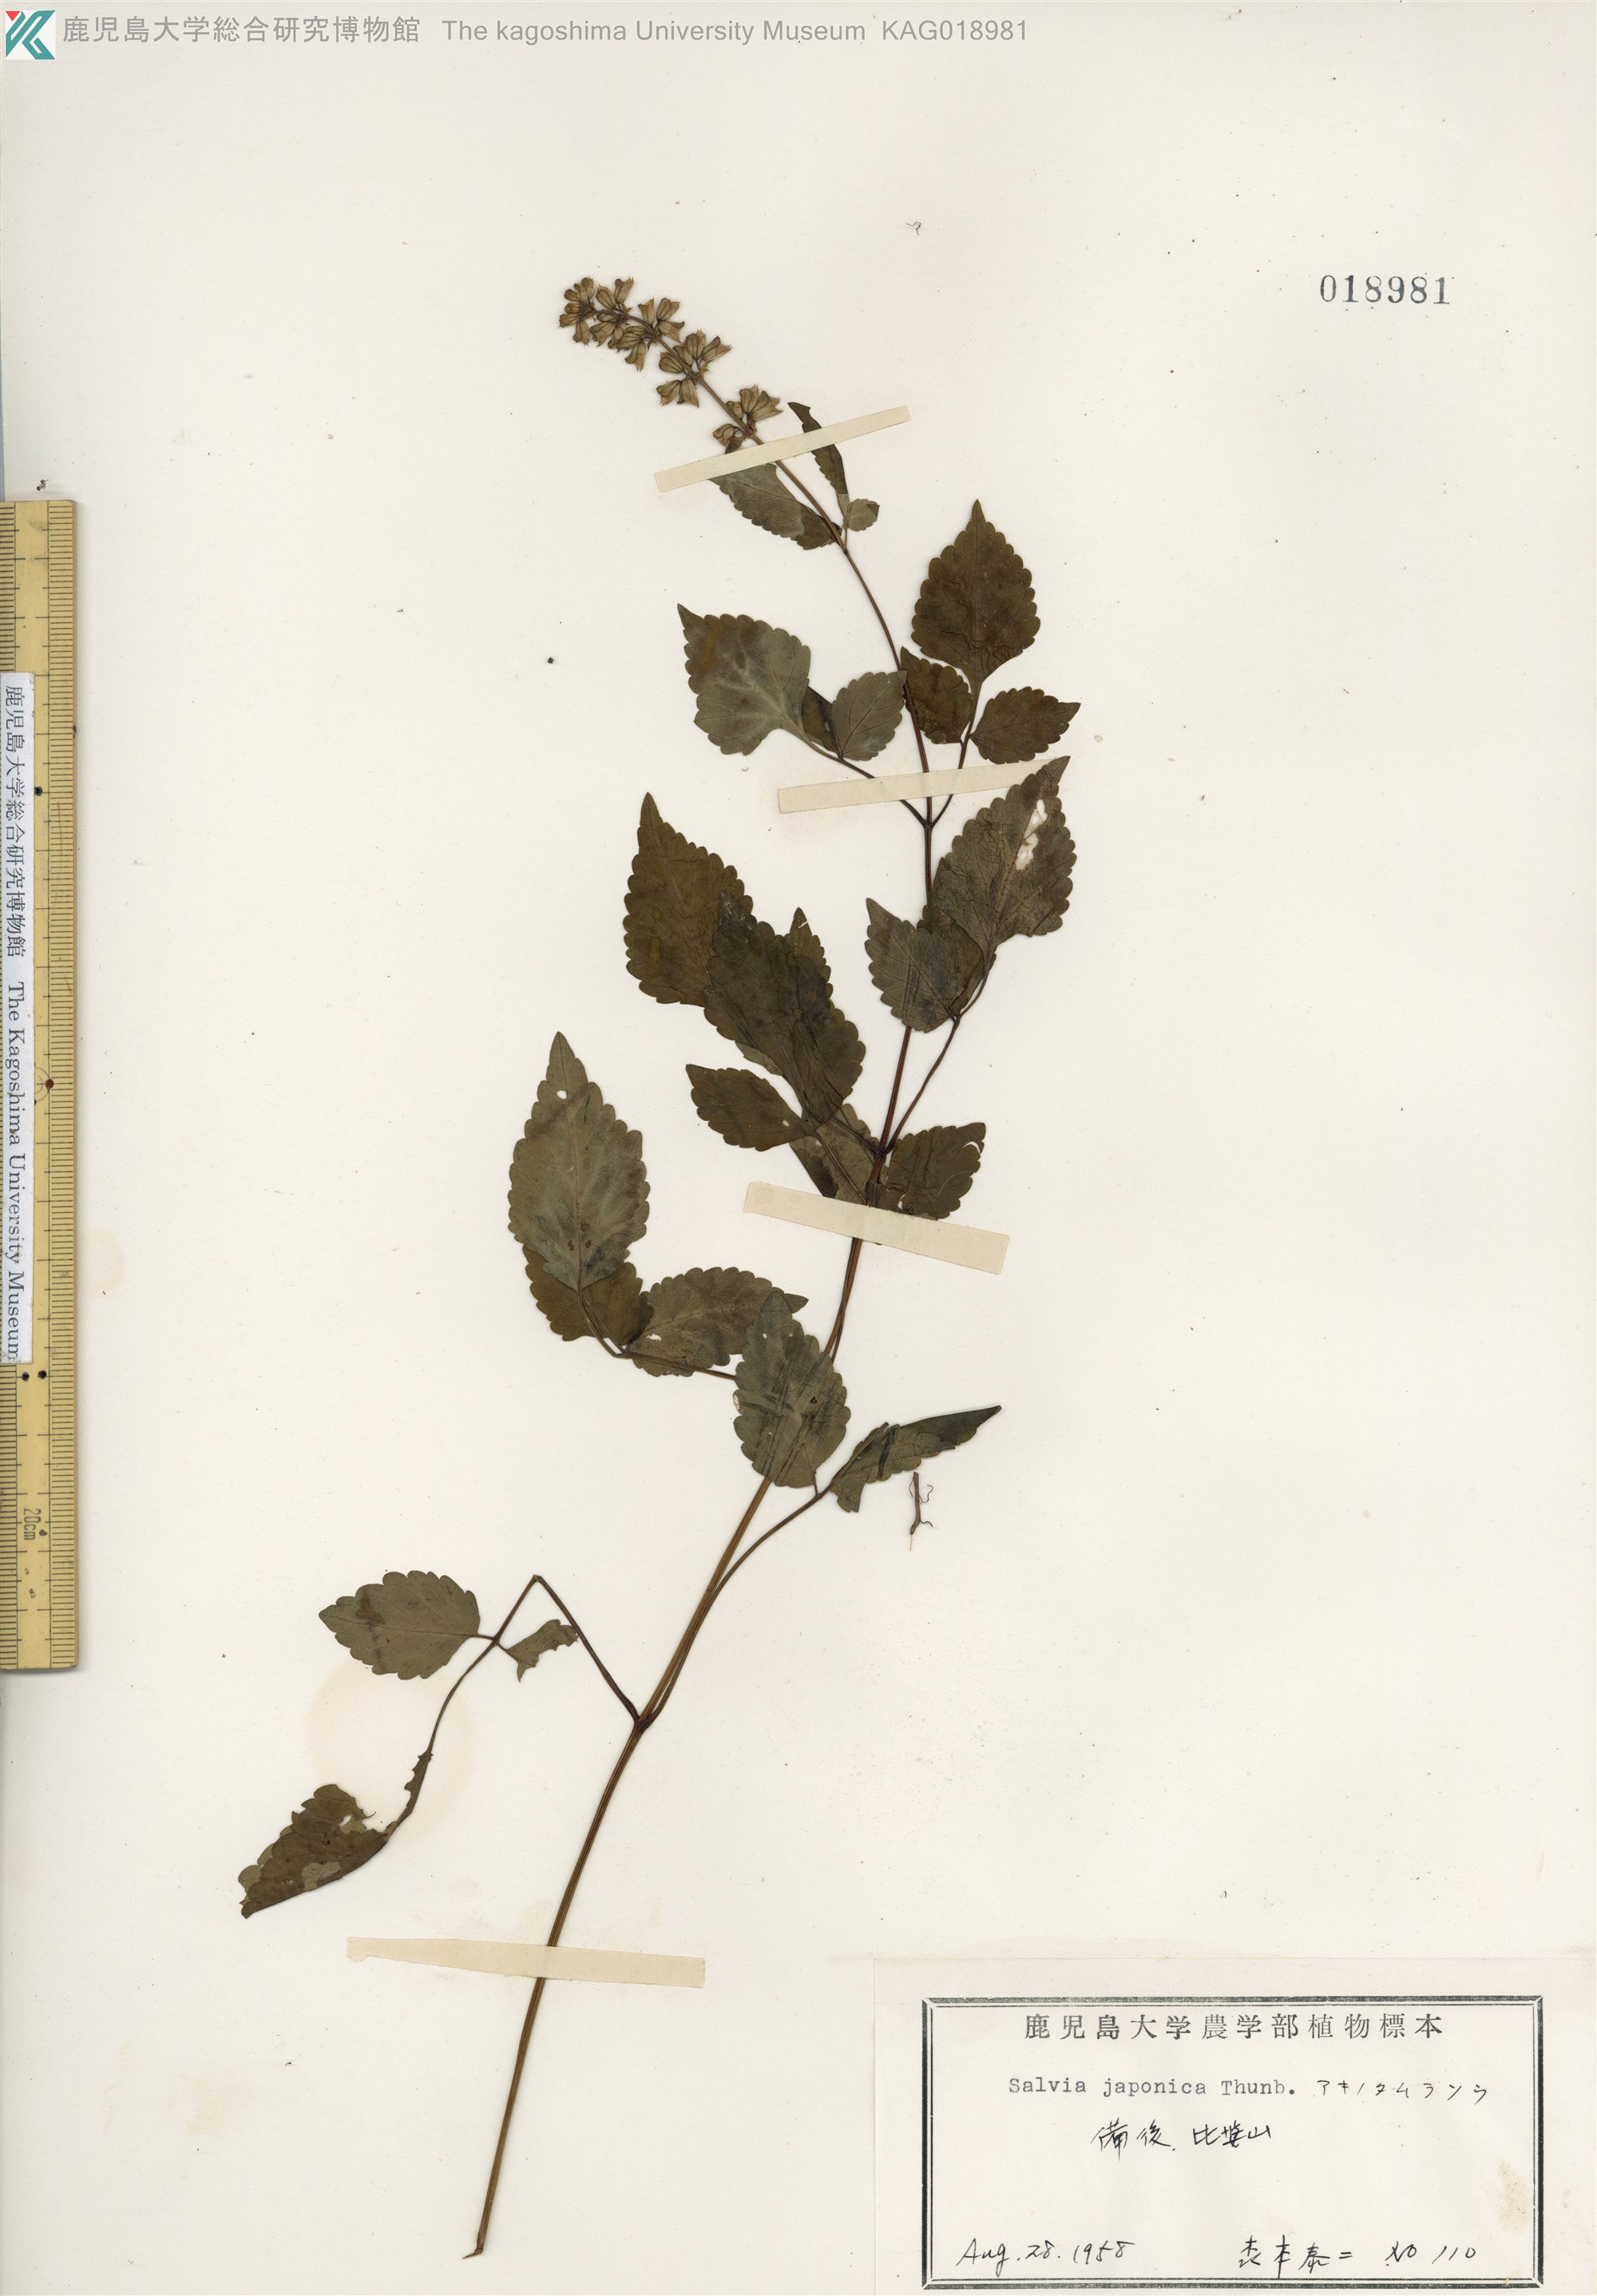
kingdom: Plantae
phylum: Tracheophyta
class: Magnoliopsida
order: Lamiales
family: Lamiaceae
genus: Salvia
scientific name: Salvia japonica
